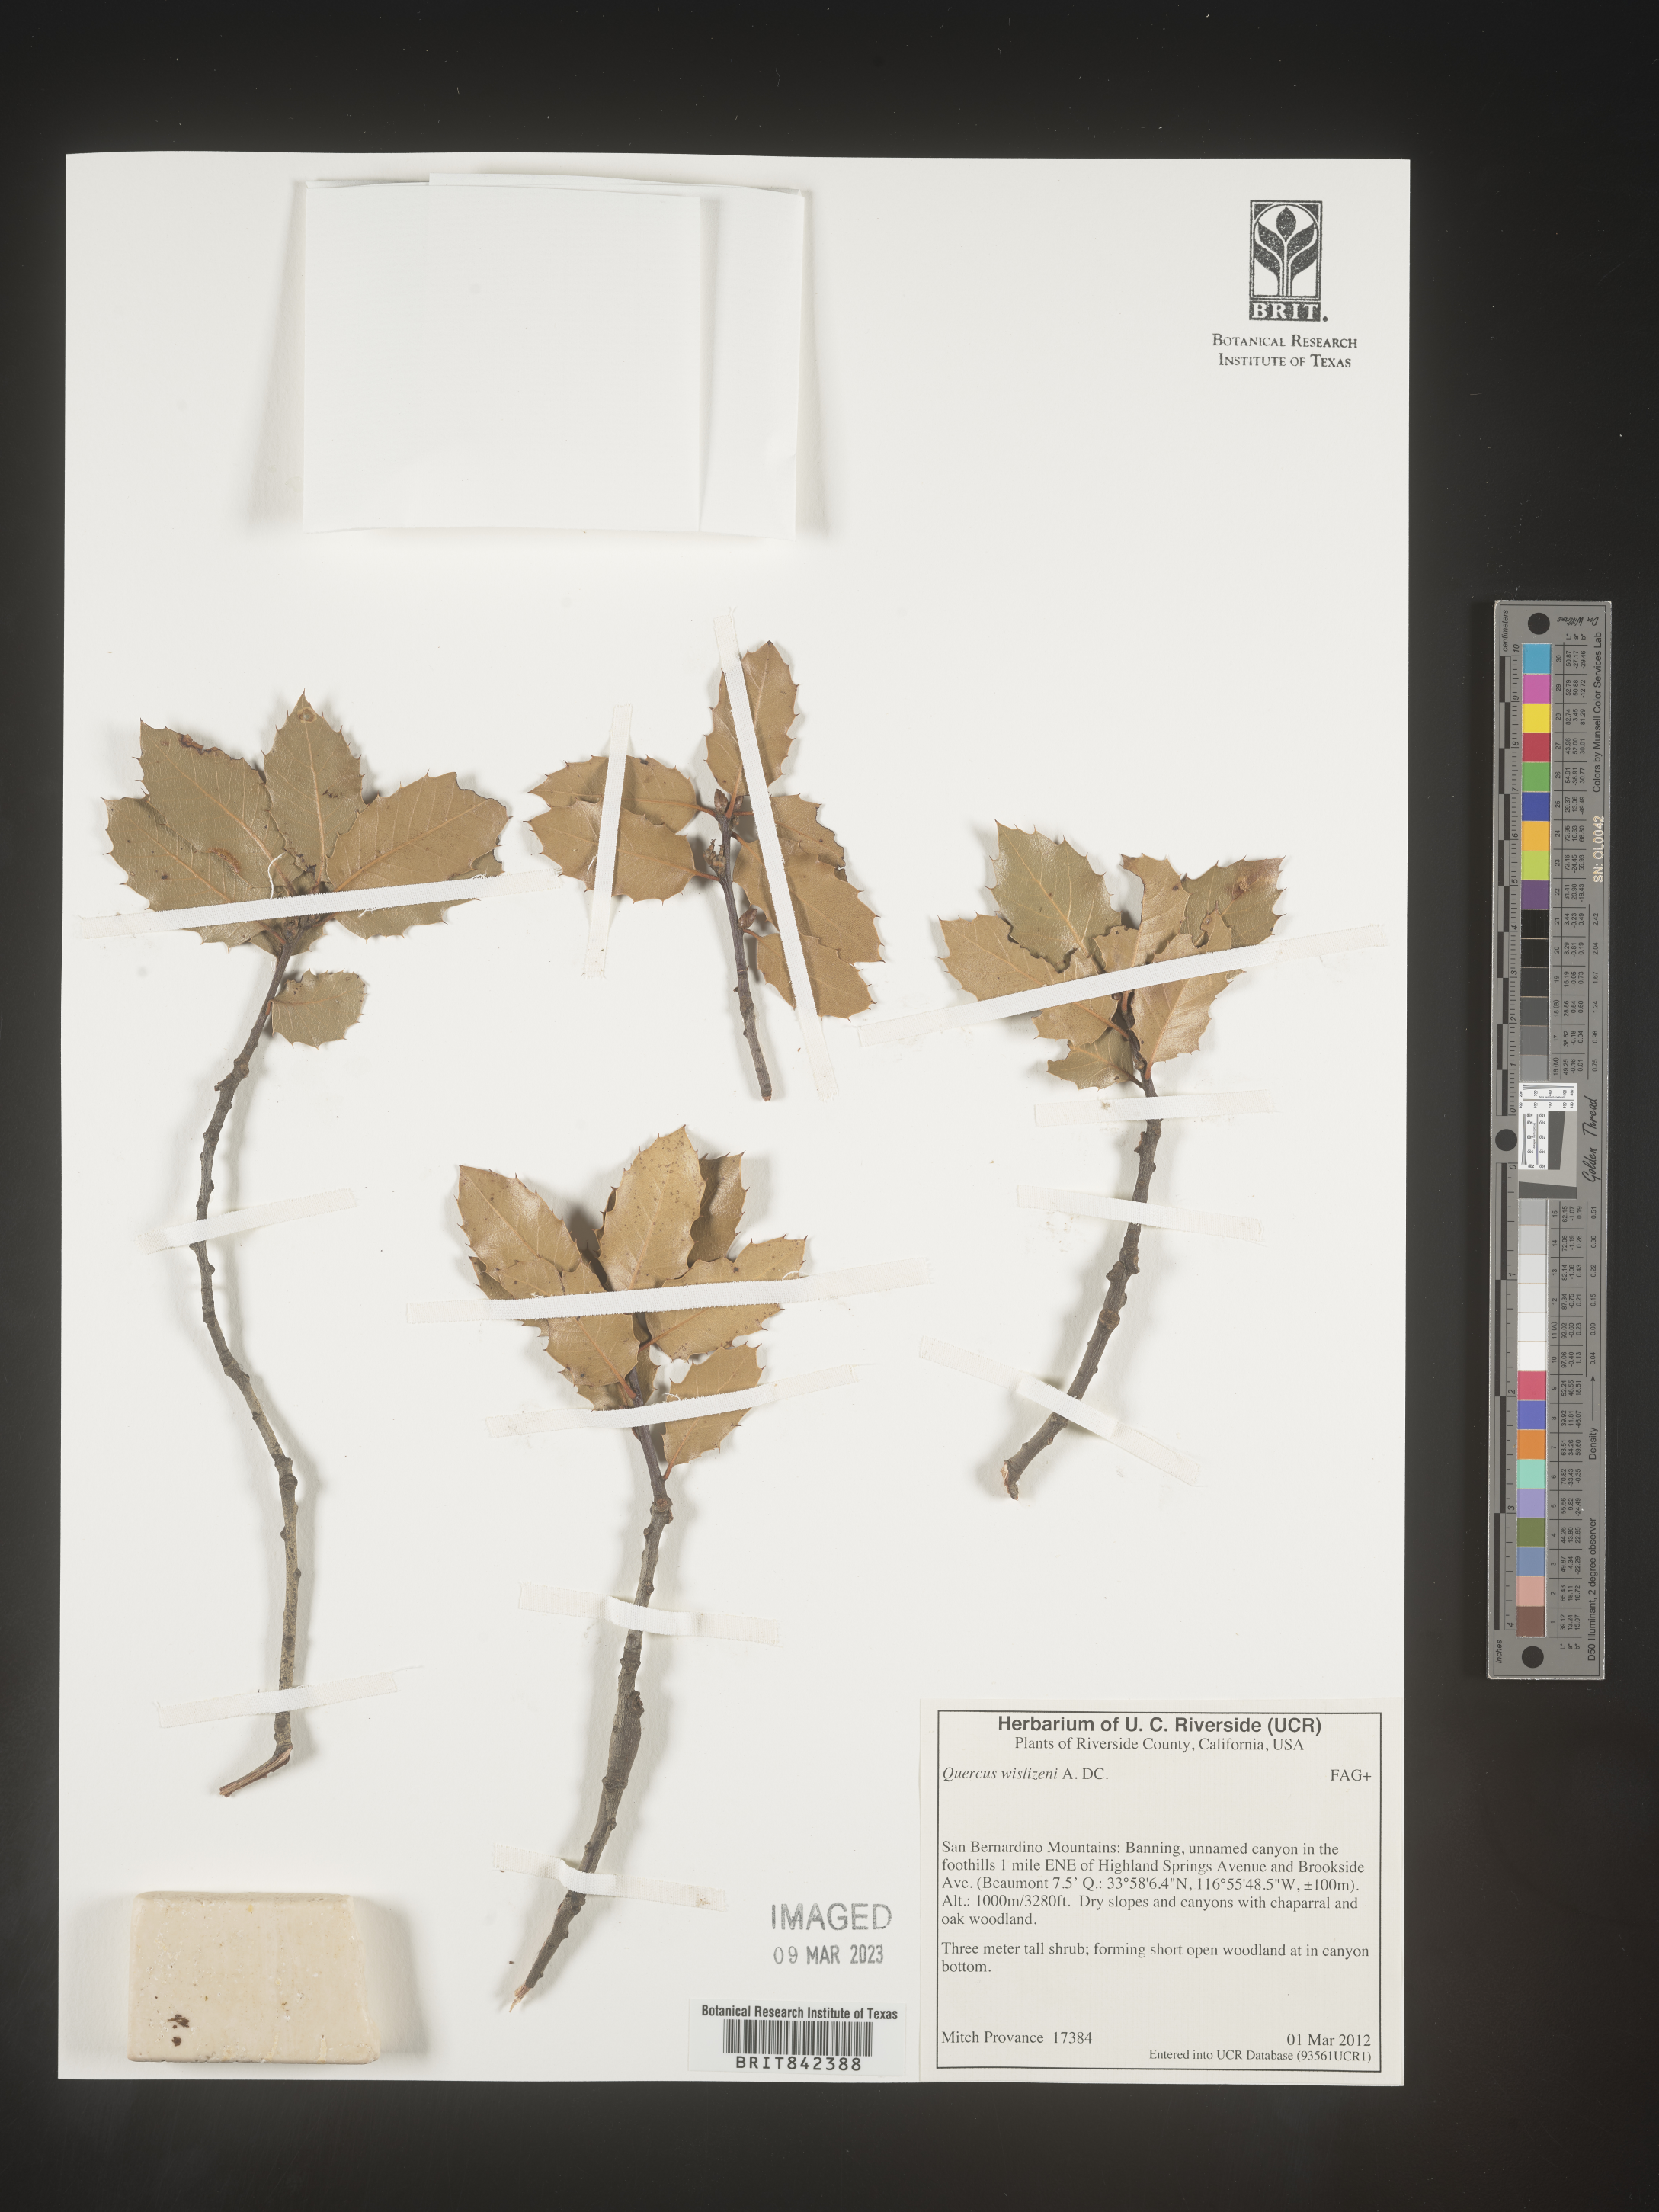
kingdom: Plantae
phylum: Tracheophyta
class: Magnoliopsida
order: Fagales
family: Fagaceae
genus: Quercus
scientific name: Quercus wislizeni
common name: Interior live oak
